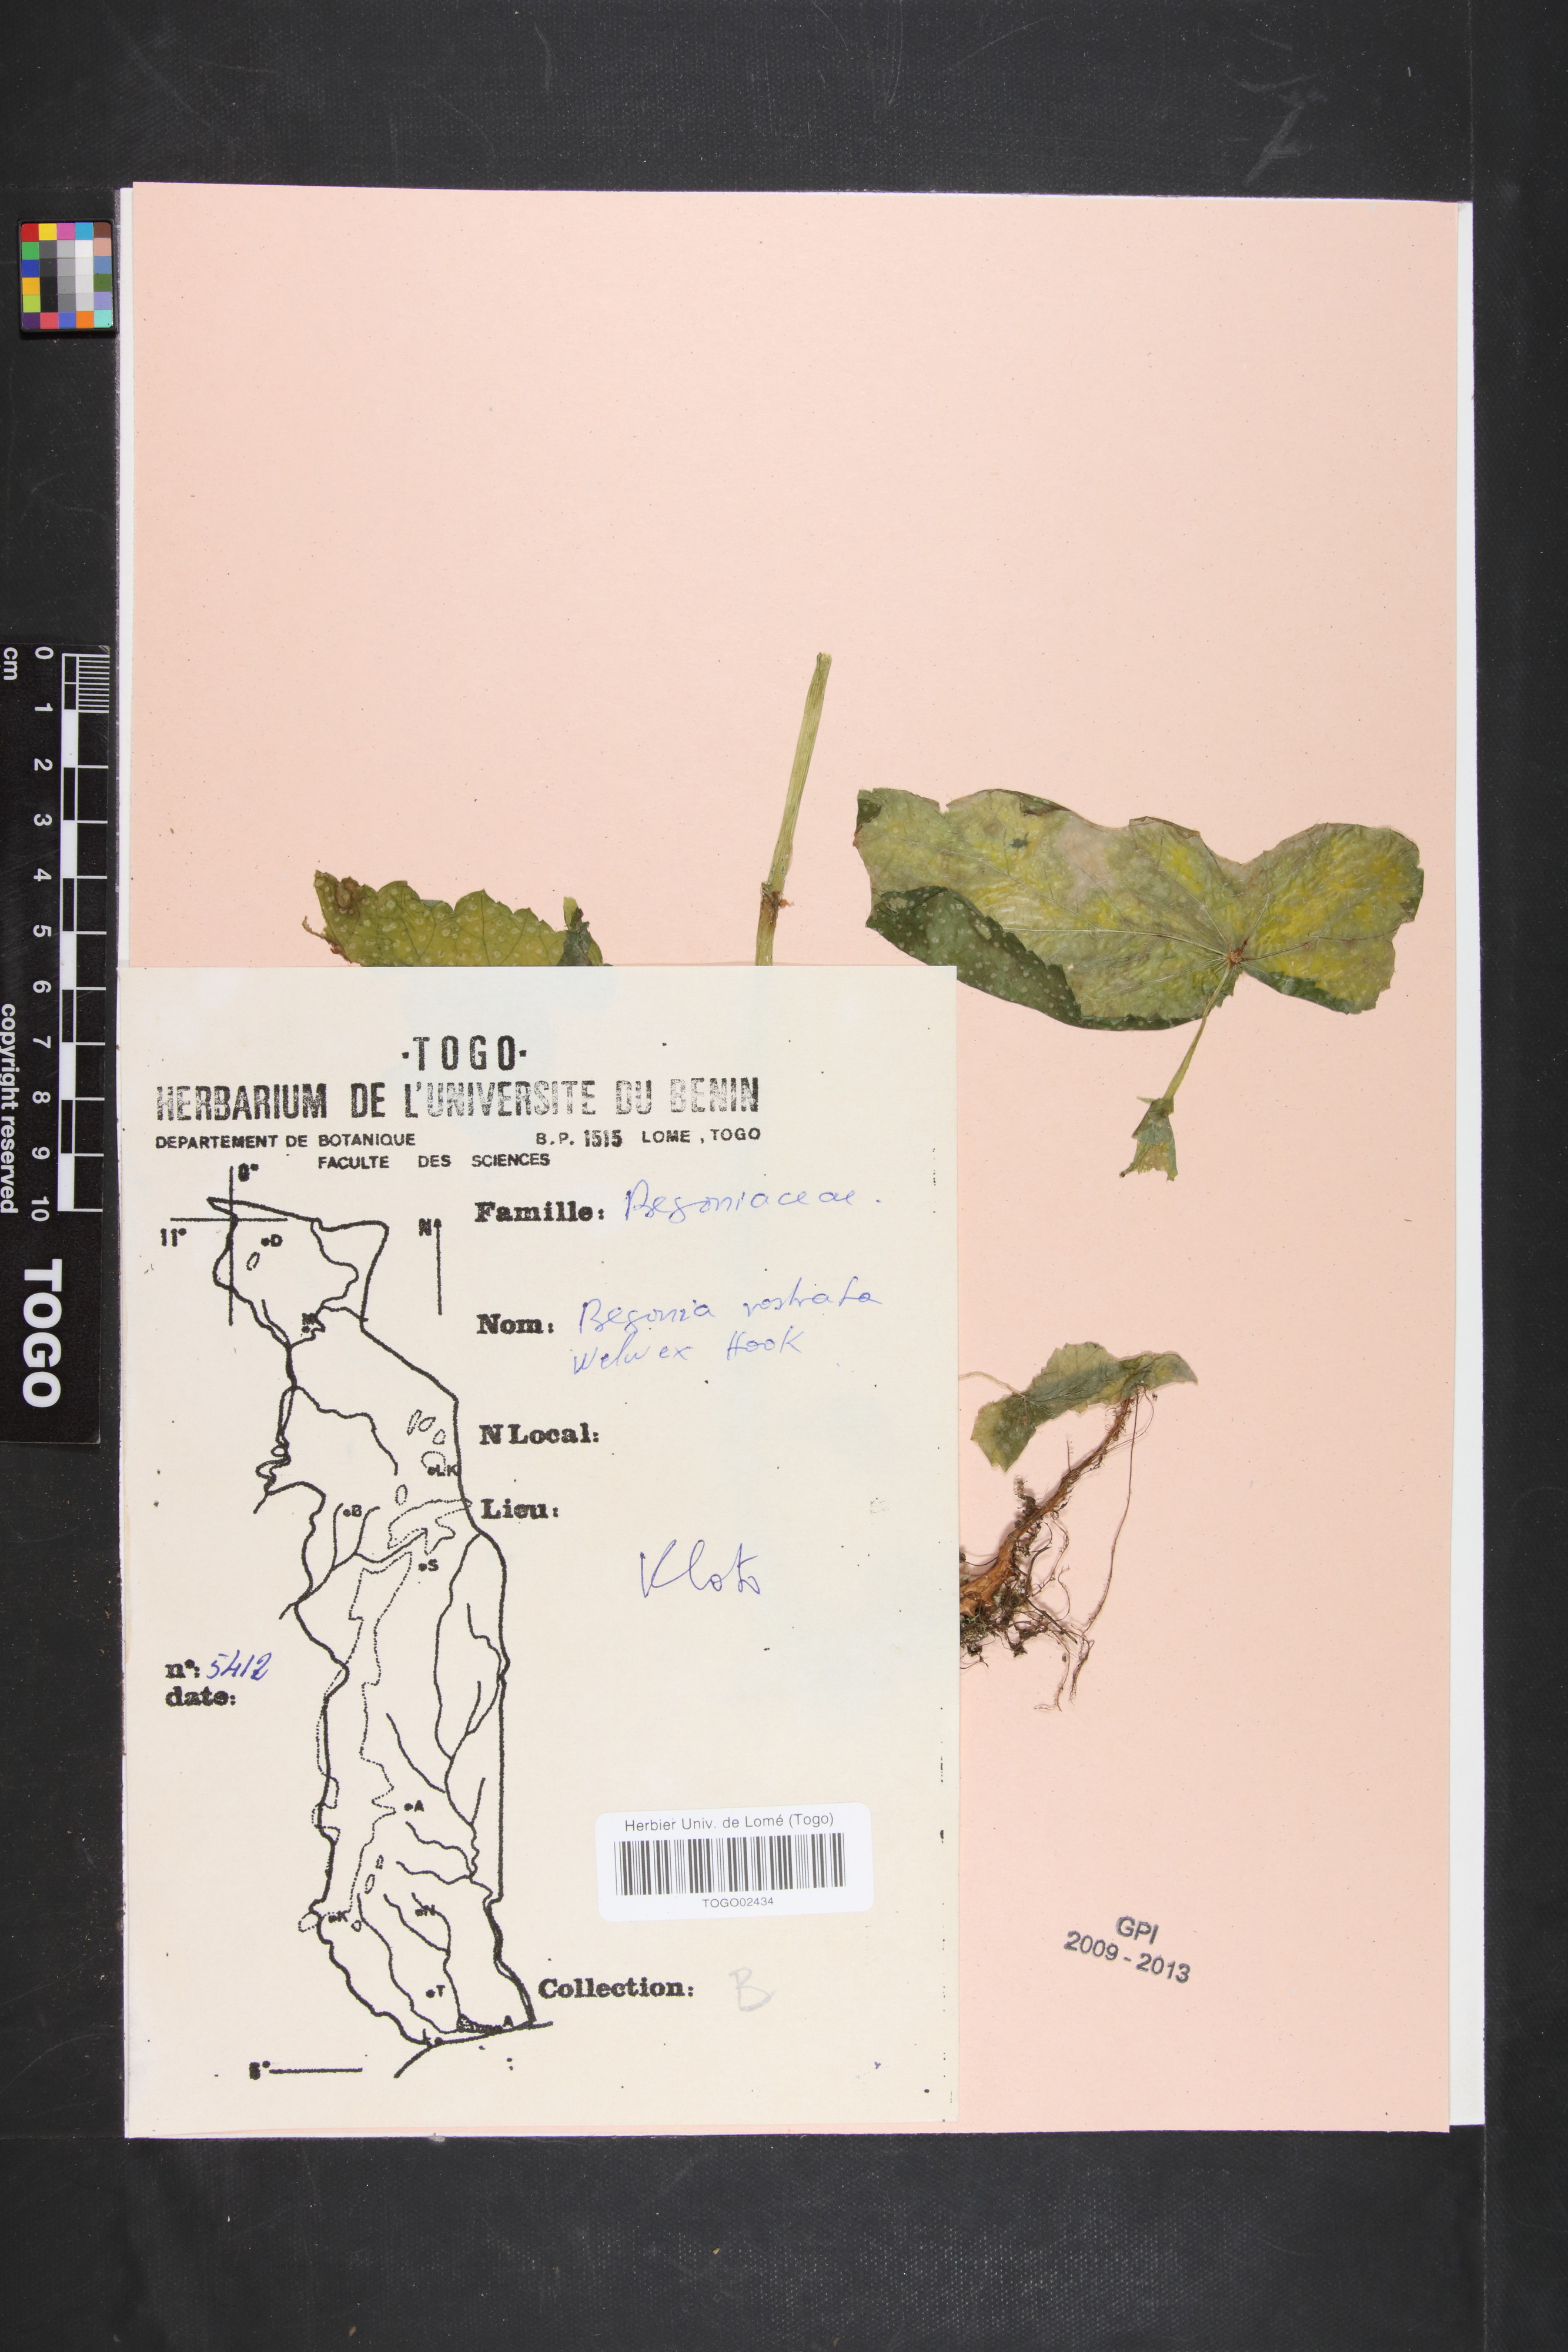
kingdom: Plantae
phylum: Tracheophyta
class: Magnoliopsida
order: Cucurbitales
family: Begoniaceae
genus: Begonia
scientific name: Begonia rostrata
